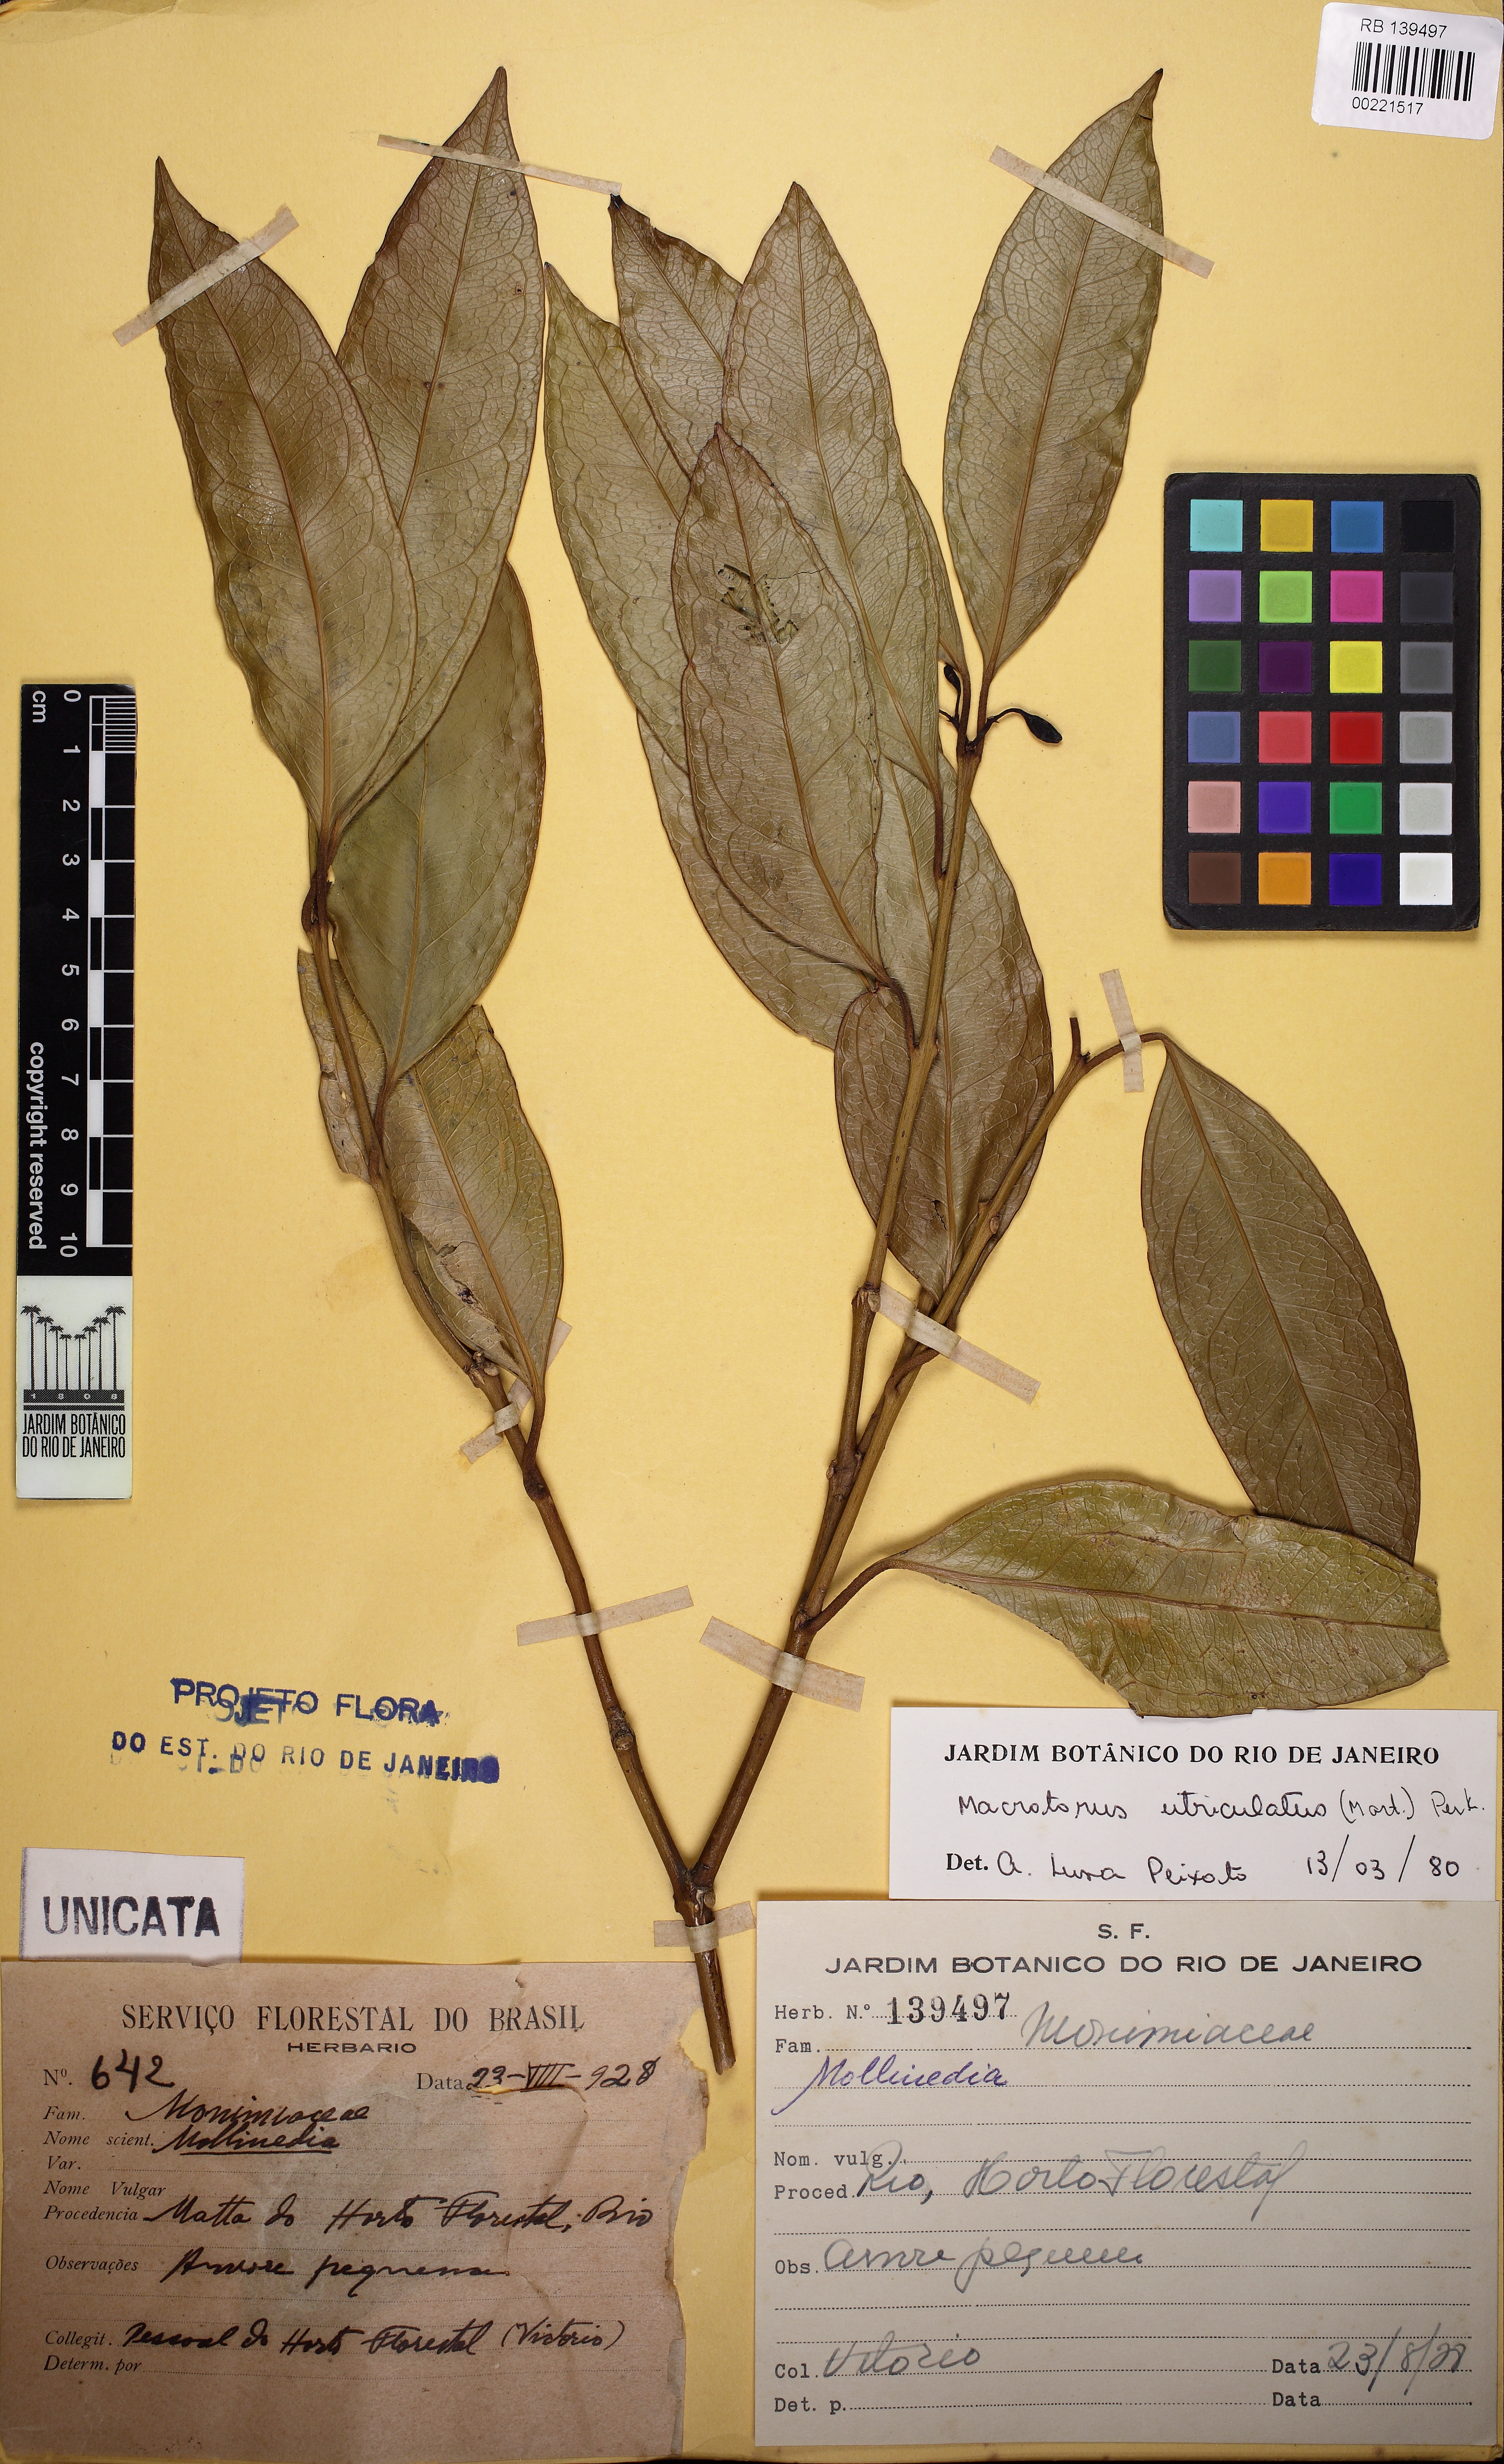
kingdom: Plantae
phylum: Tracheophyta
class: Magnoliopsida
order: Laurales
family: Monimiaceae
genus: Macrotorus
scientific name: Macrotorus utriculatus
